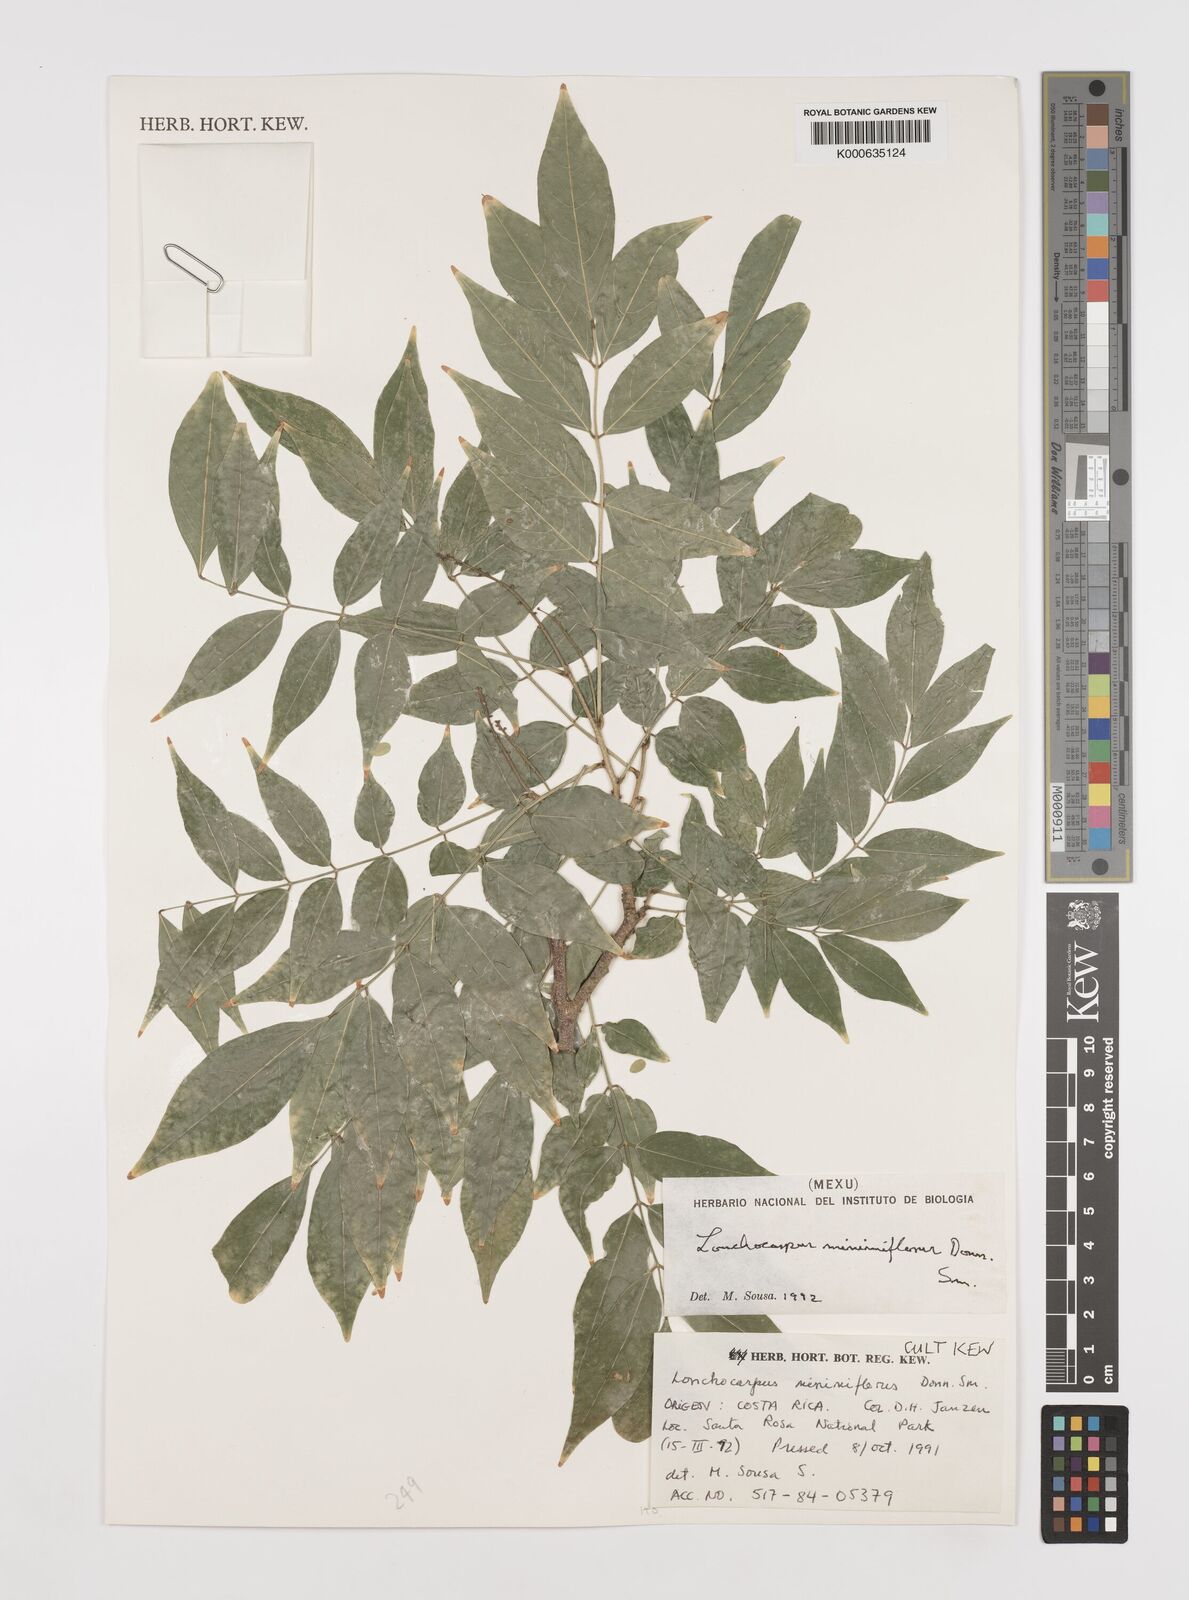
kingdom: Plantae
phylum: Tracheophyta
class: Magnoliopsida
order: Fabales
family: Fabaceae
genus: Lonchocarpus
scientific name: Lonchocarpus minimiflorus
